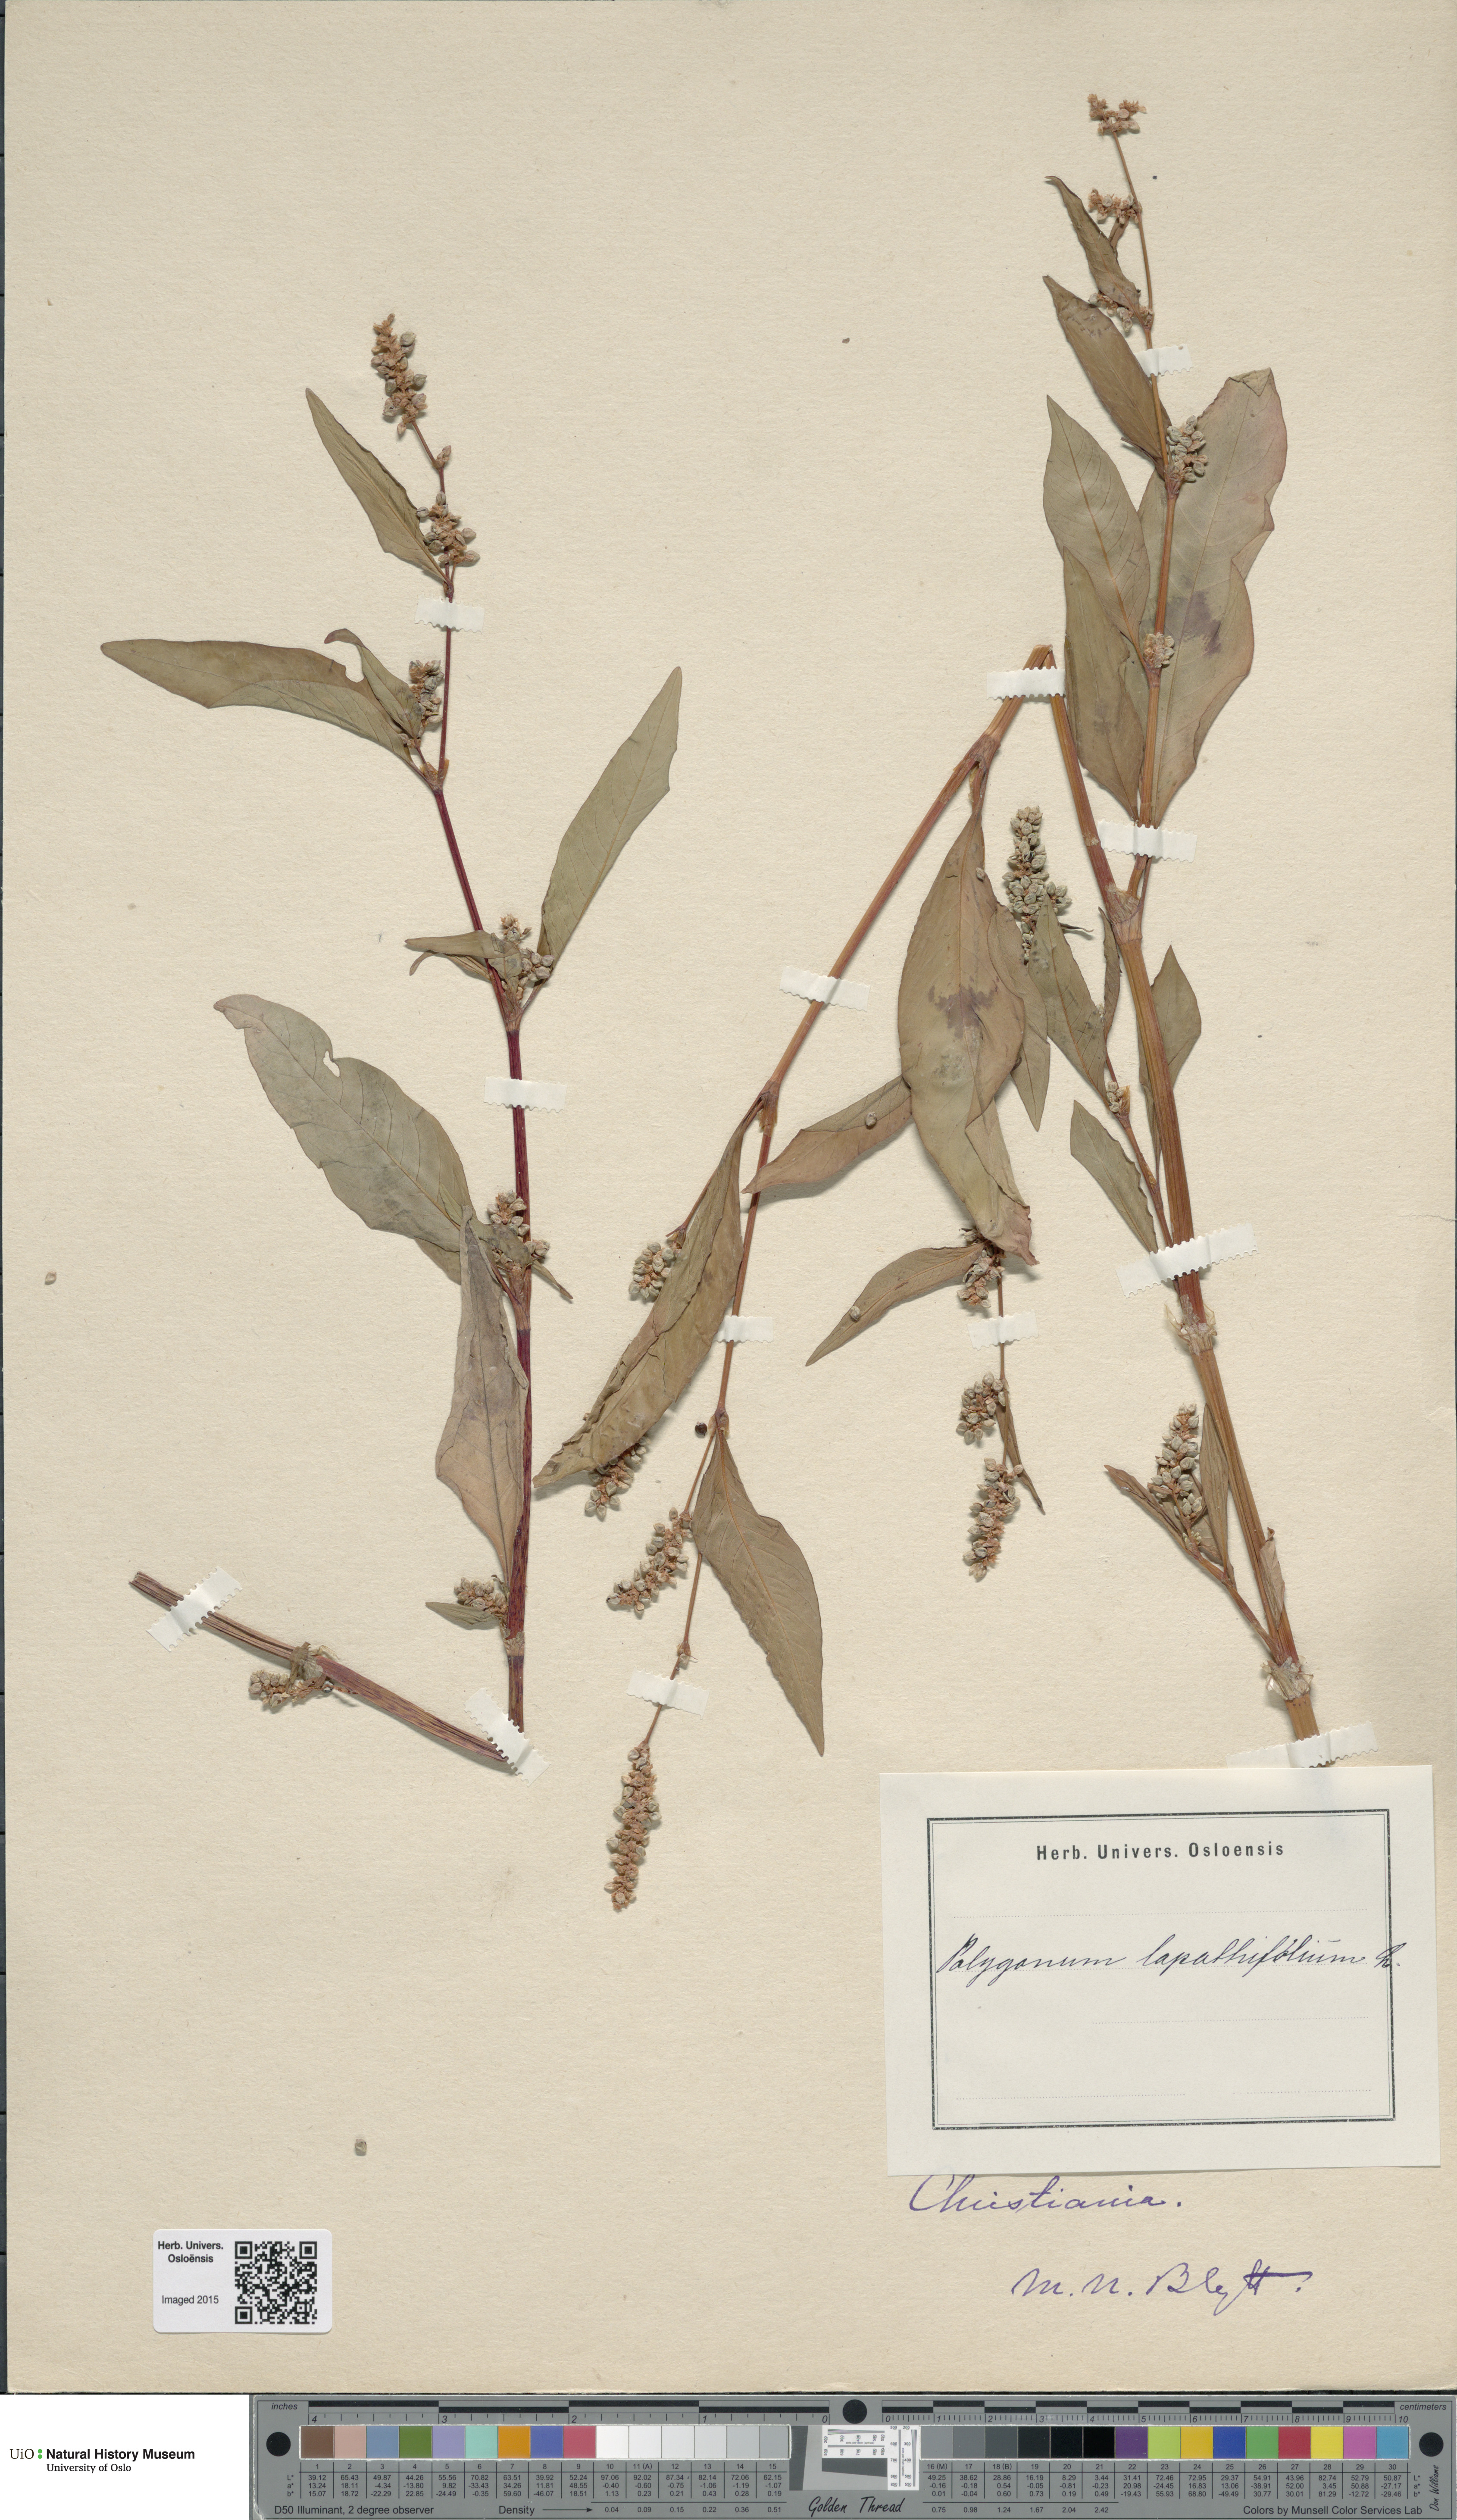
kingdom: Plantae
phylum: Tracheophyta
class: Magnoliopsida
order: Caryophyllales
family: Polygonaceae
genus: Persicaria
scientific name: Persicaria lapathifolia
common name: Curlytop knotweed
